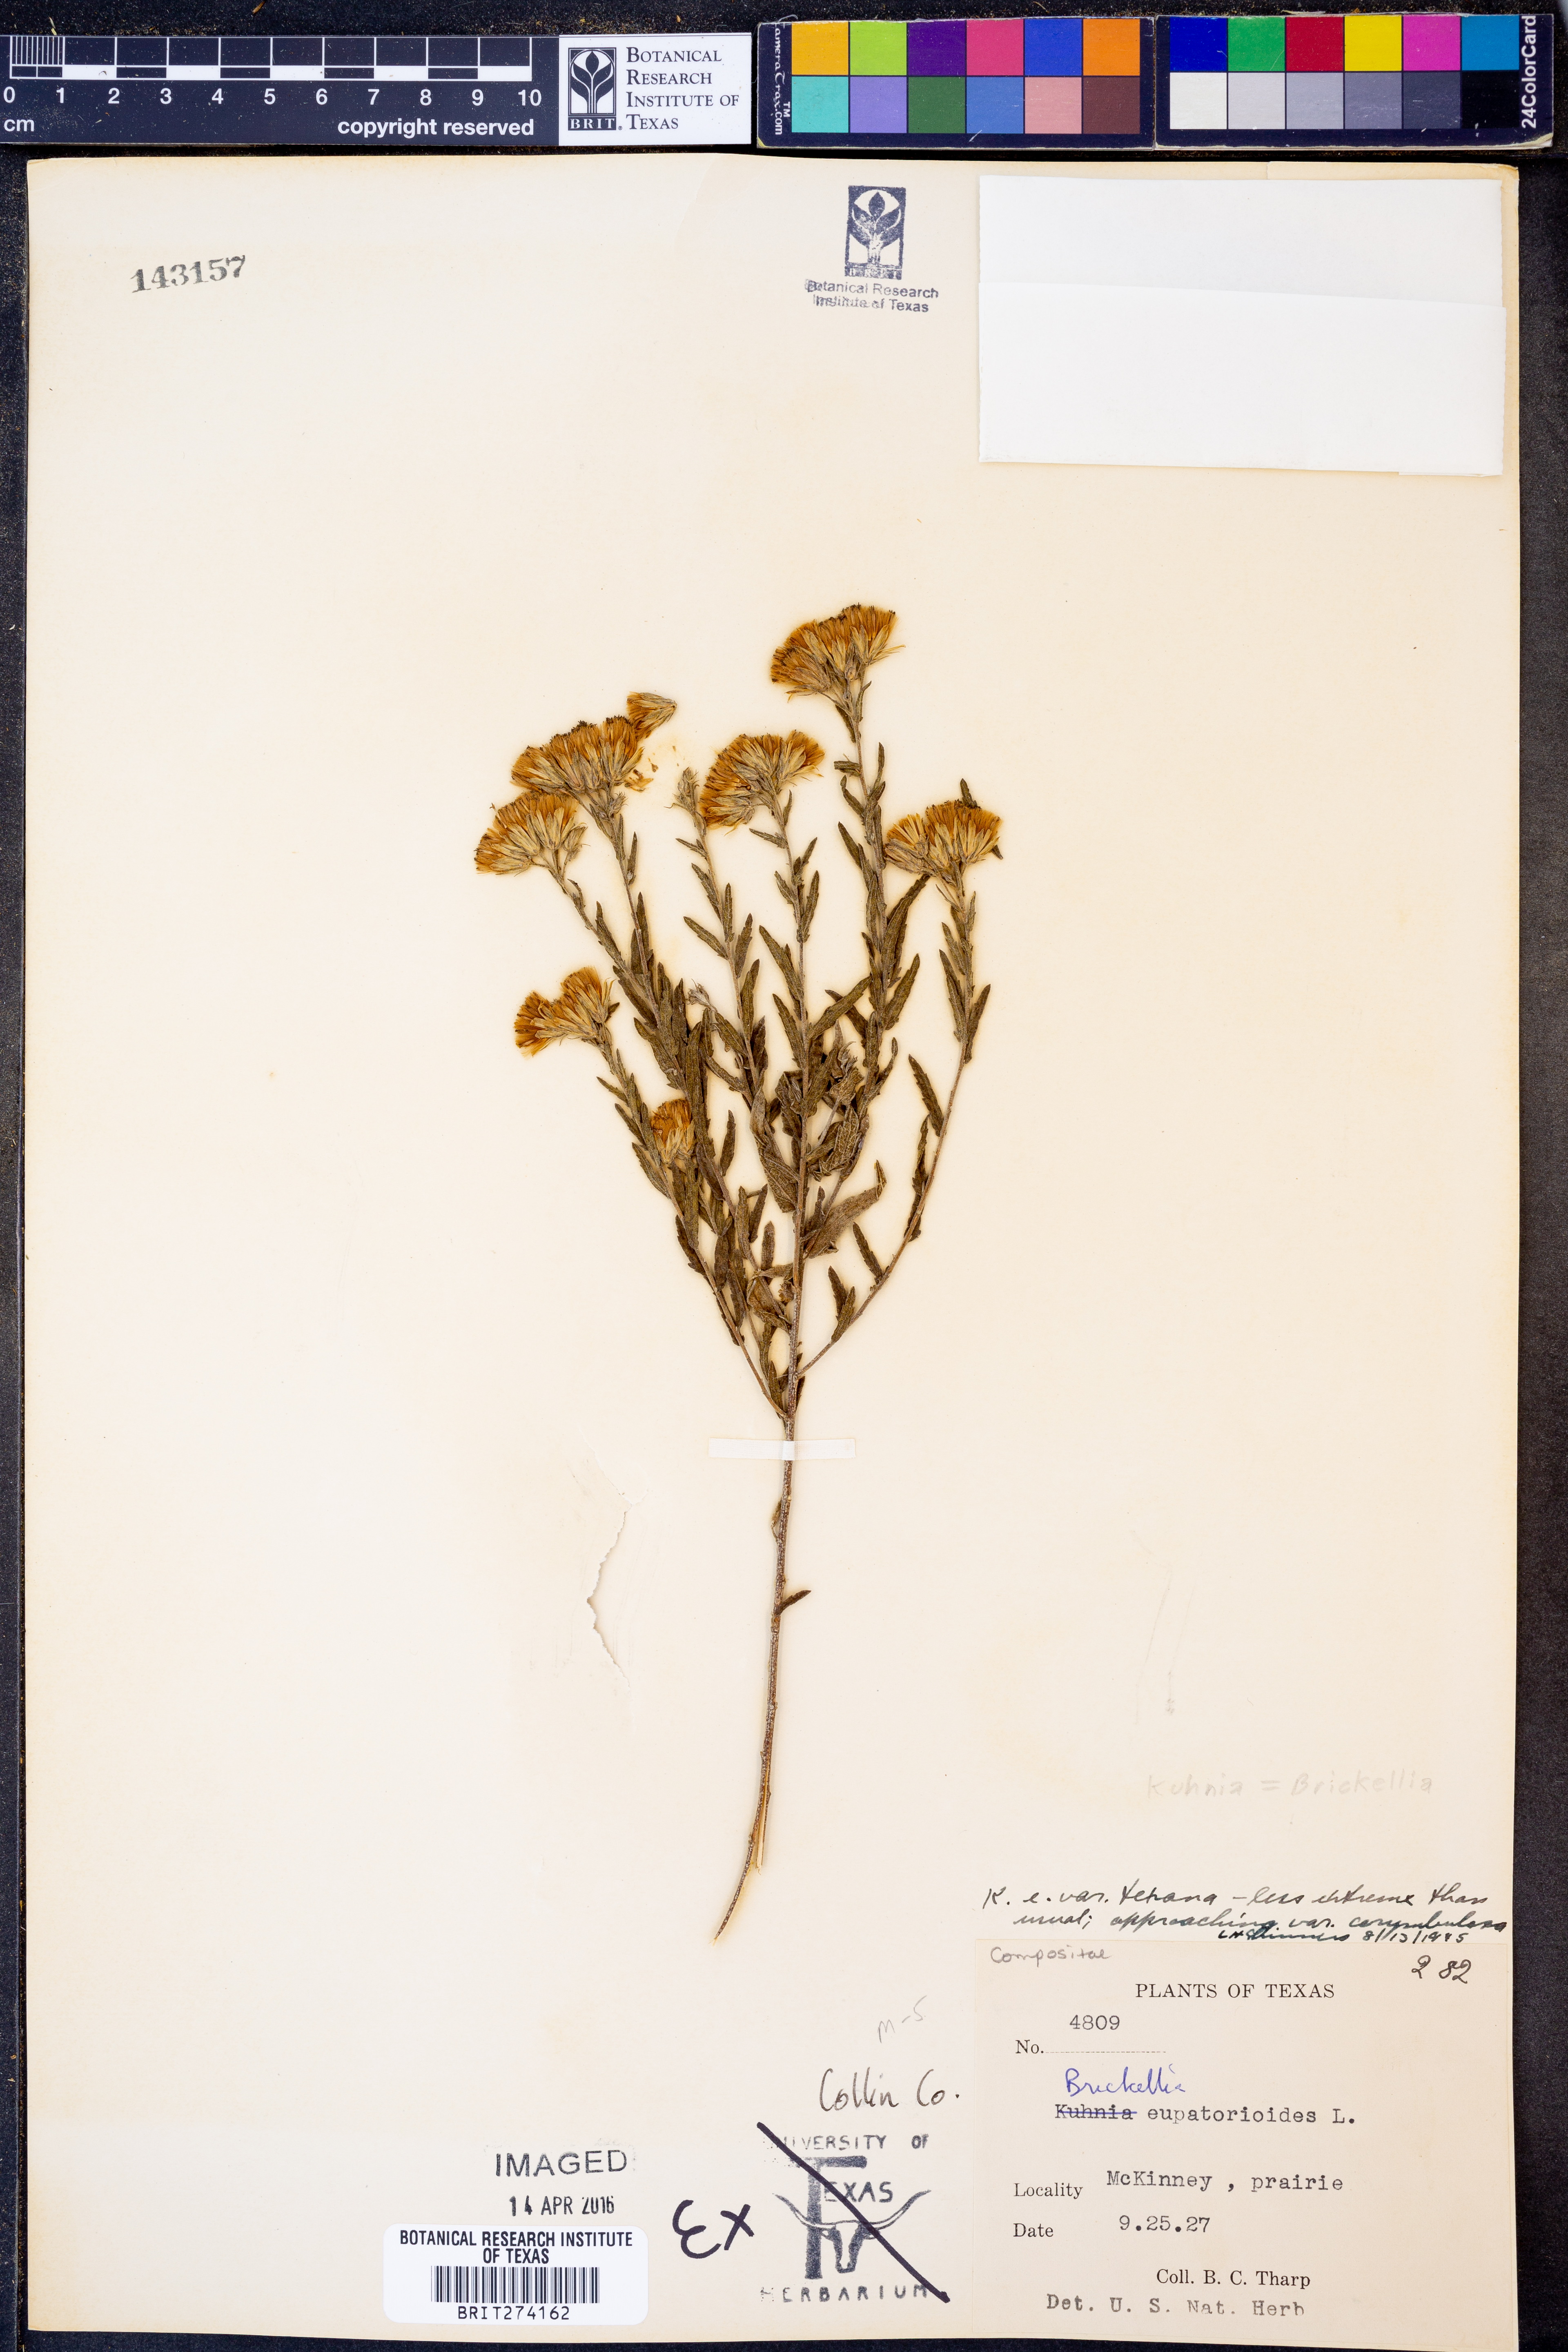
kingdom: Plantae
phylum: Tracheophyta
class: Magnoliopsida
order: Asterales
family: Asteraceae
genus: Brickellia
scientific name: Brickellia macranthra
